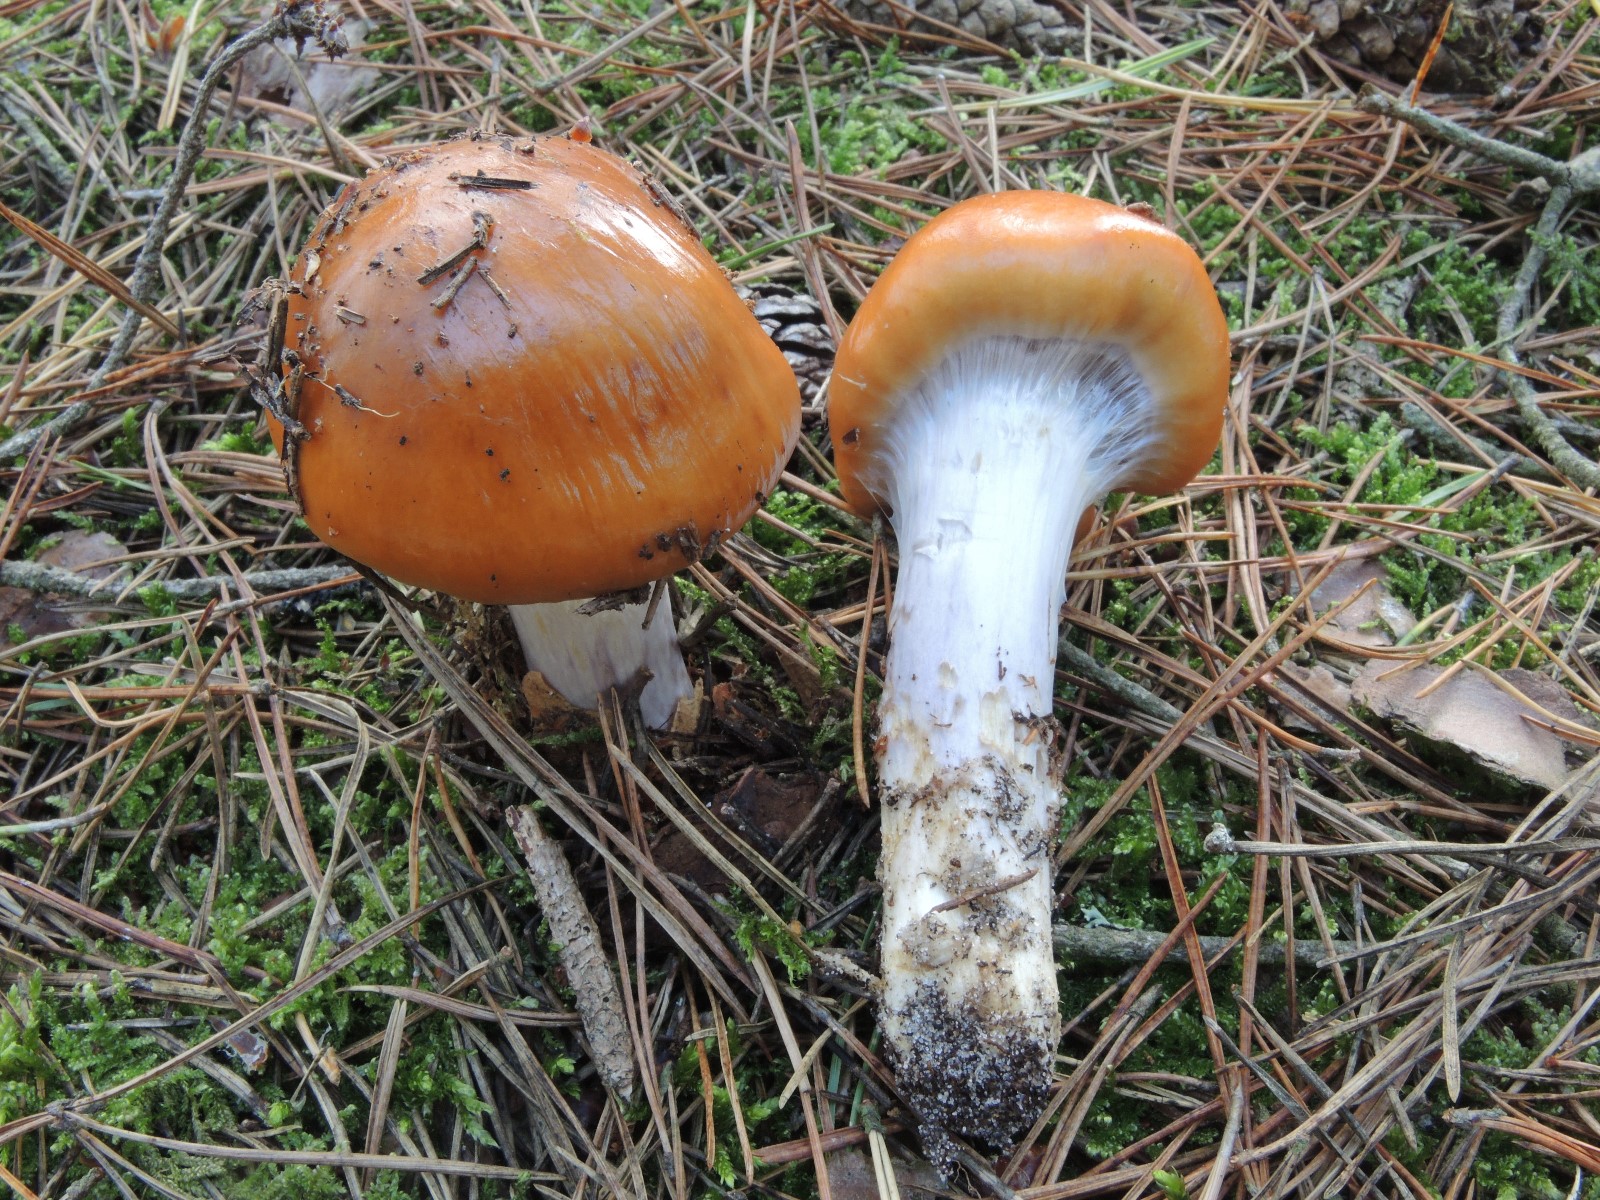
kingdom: Fungi
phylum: Basidiomycota
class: Agaricomycetes
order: Agaricales
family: Cortinariaceae
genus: Cortinarius
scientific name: Cortinarius mucosus
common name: kastaniebrun slørhat
